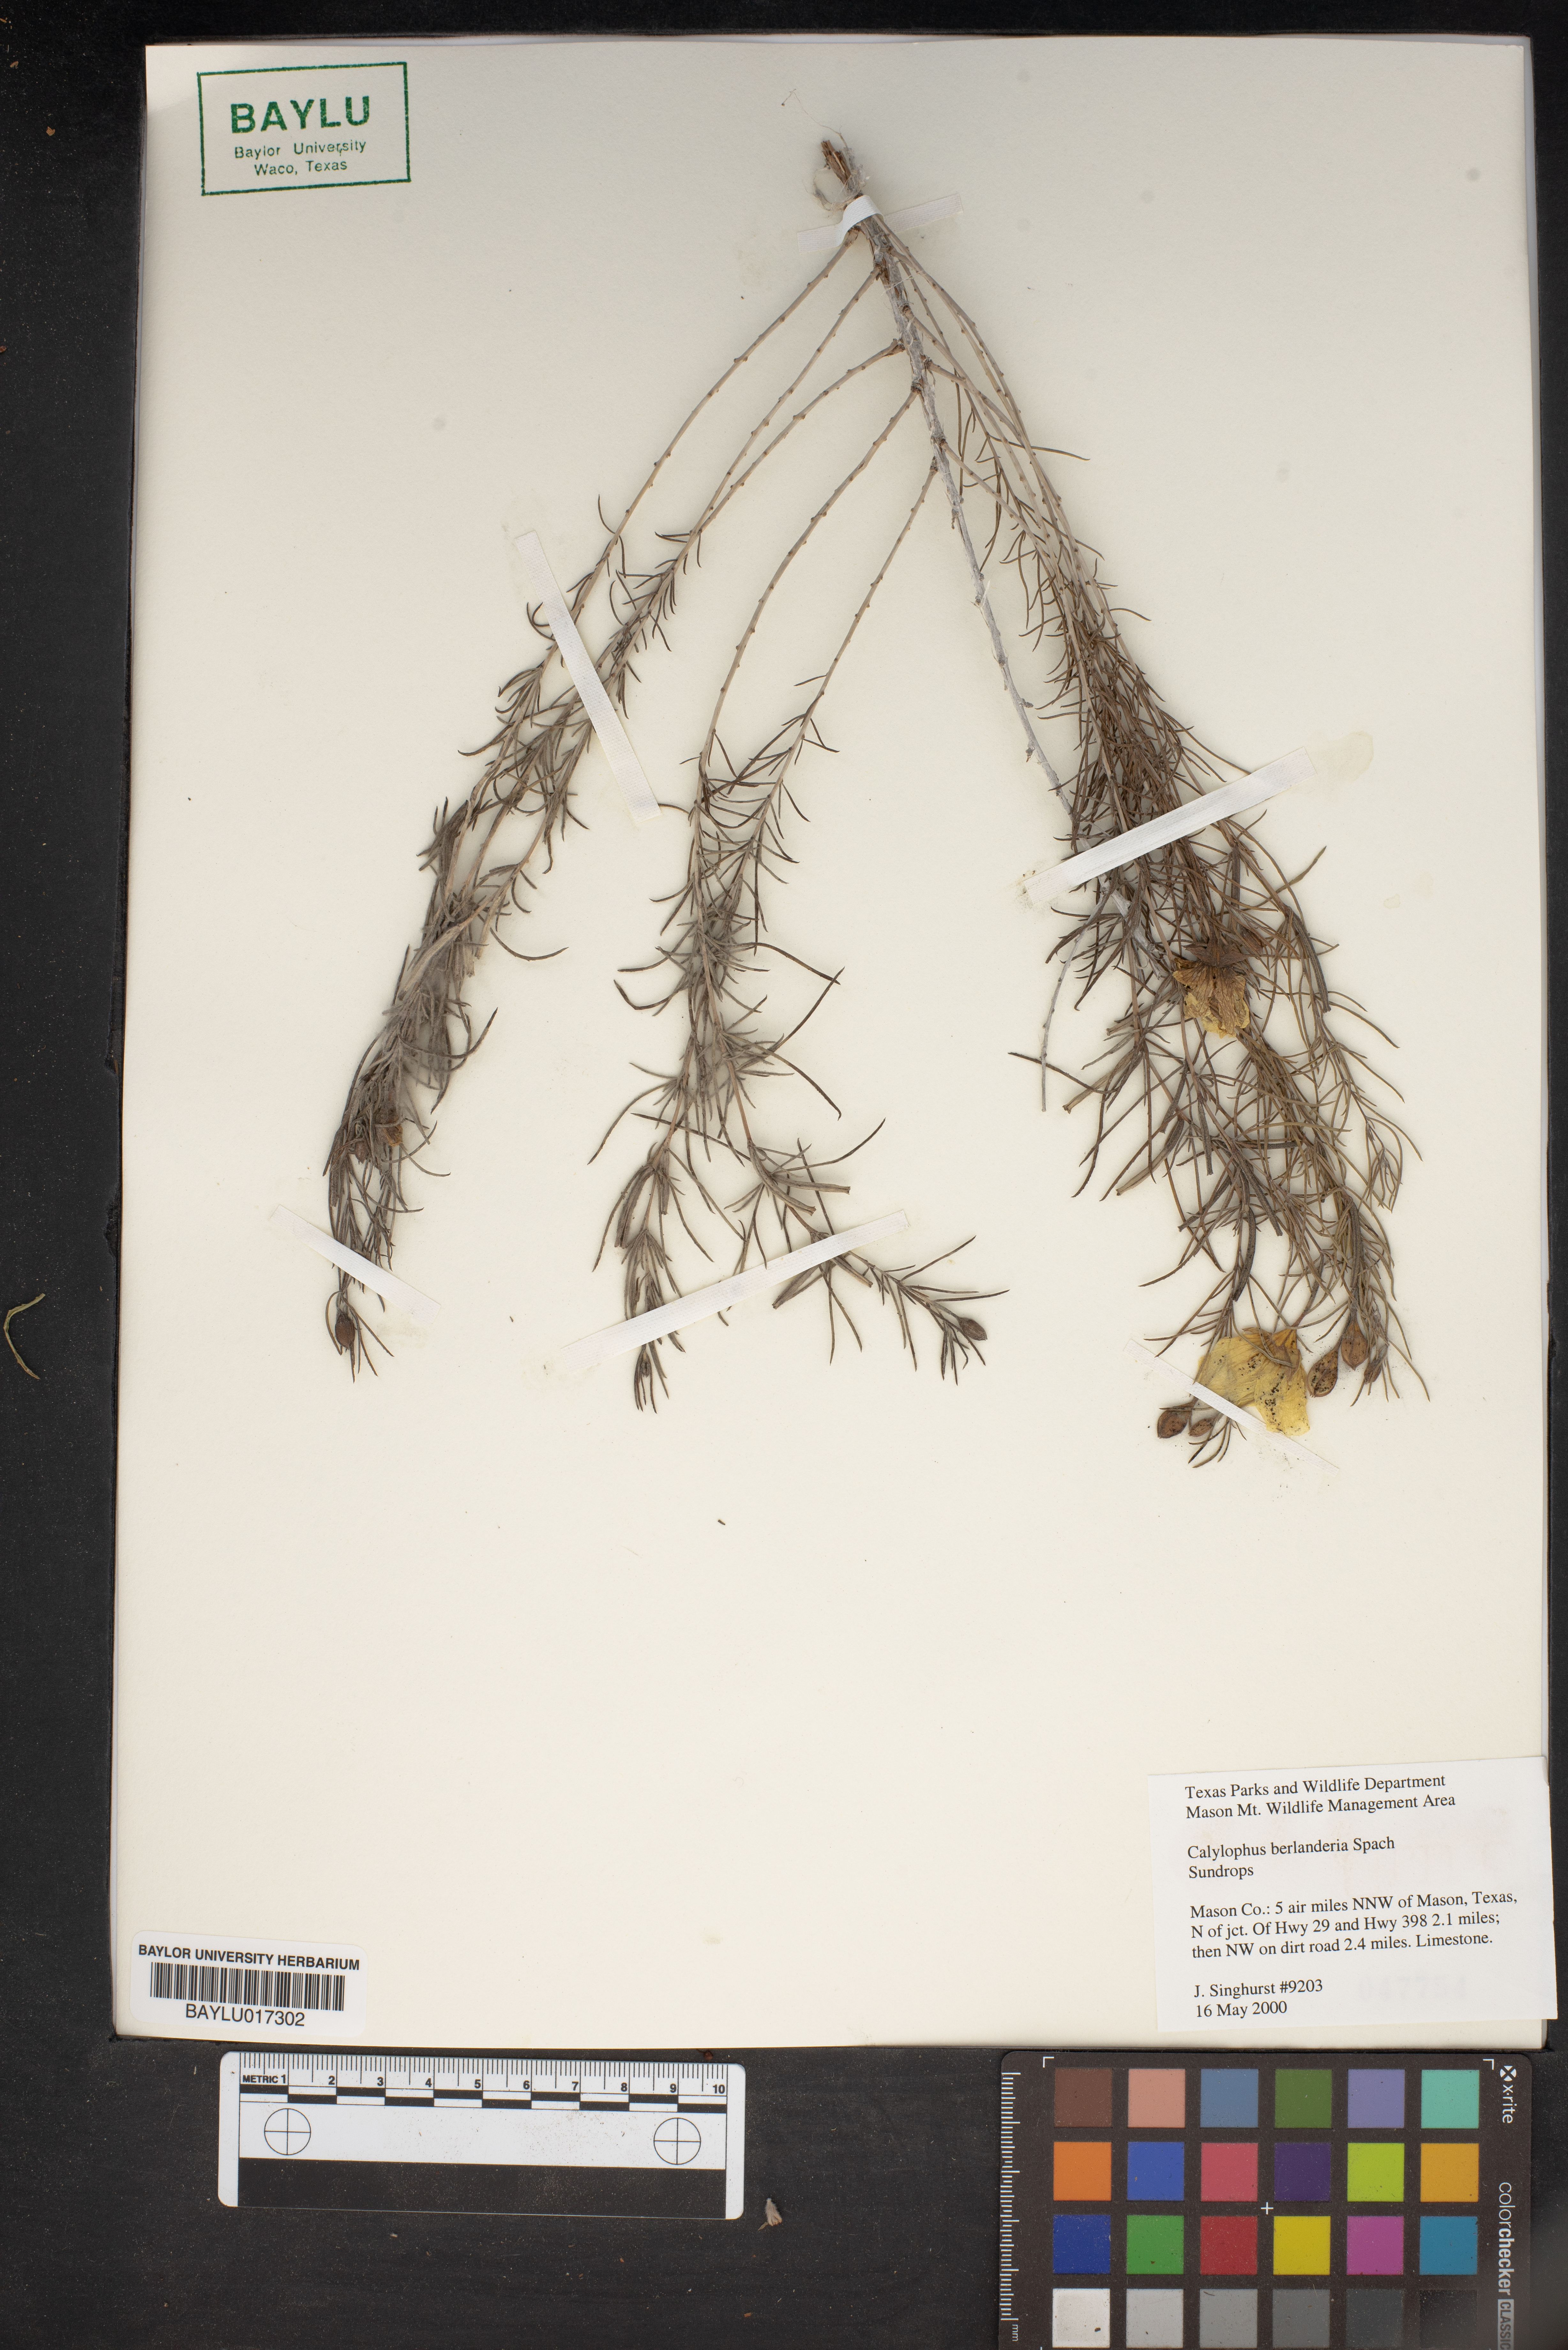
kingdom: Plantae
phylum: Tracheophyta
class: Magnoliopsida
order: Myrtales
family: Onagraceae
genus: Oenothera
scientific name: Oenothera capillifolia
